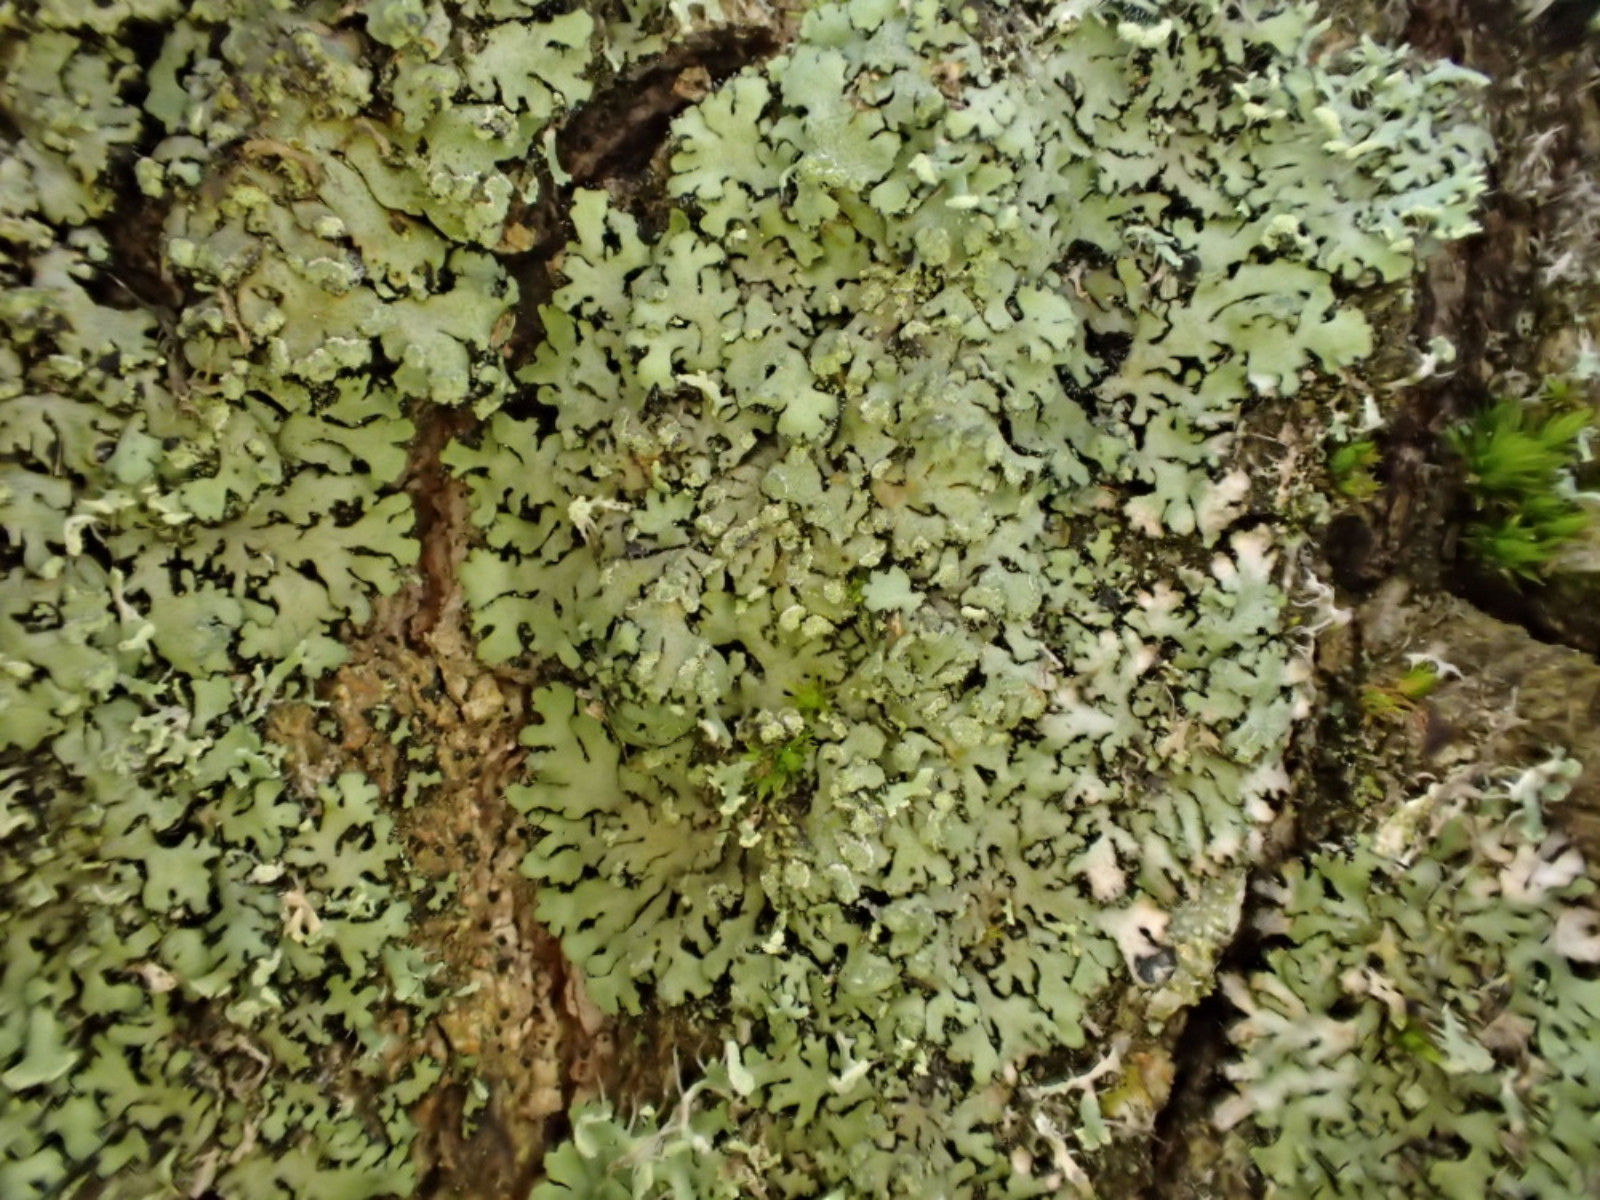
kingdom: Fungi
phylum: Ascomycota
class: Lecanoromycetes
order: Caliciales
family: Physciaceae
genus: Phaeophyscia
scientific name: Phaeophyscia orbicularis
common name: grågrøn rosetlav
